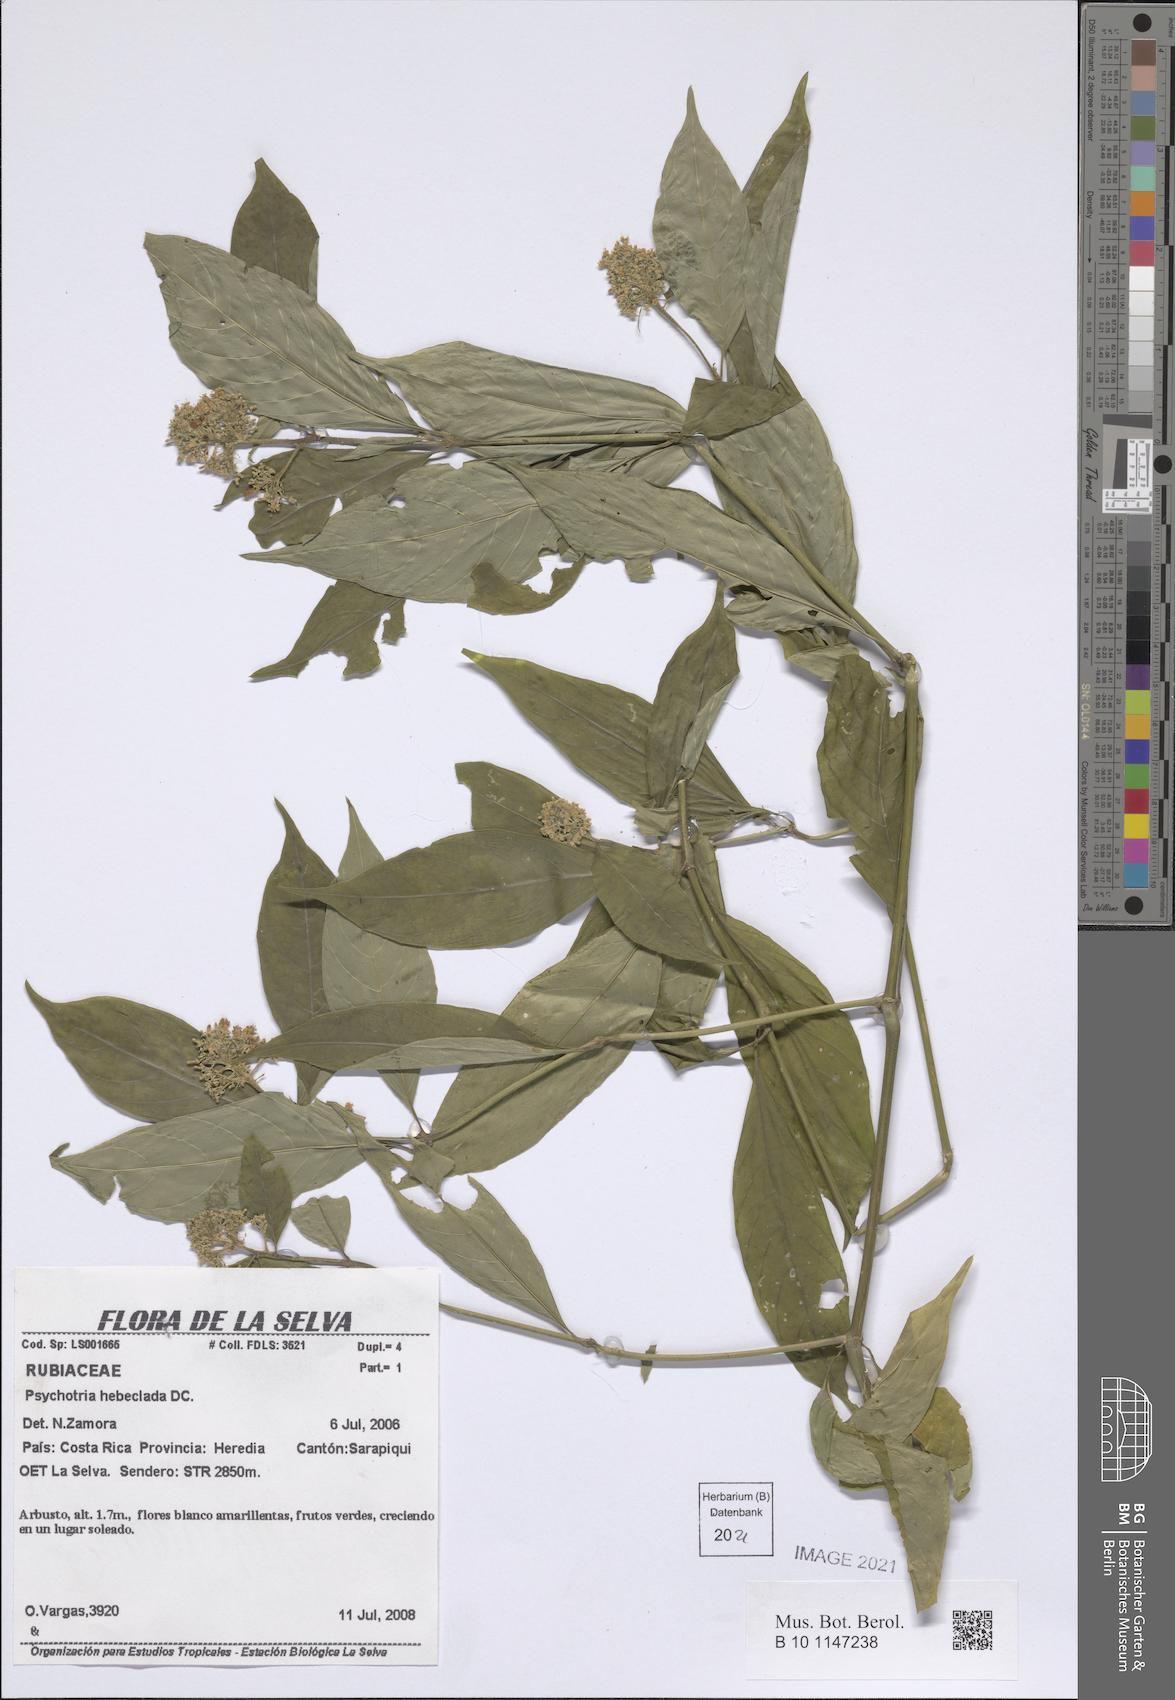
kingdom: Plantae
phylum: Tracheophyta
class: Magnoliopsida
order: Gentianales
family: Rubiaceae
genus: Palicourea
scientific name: Palicourea hebeclada
